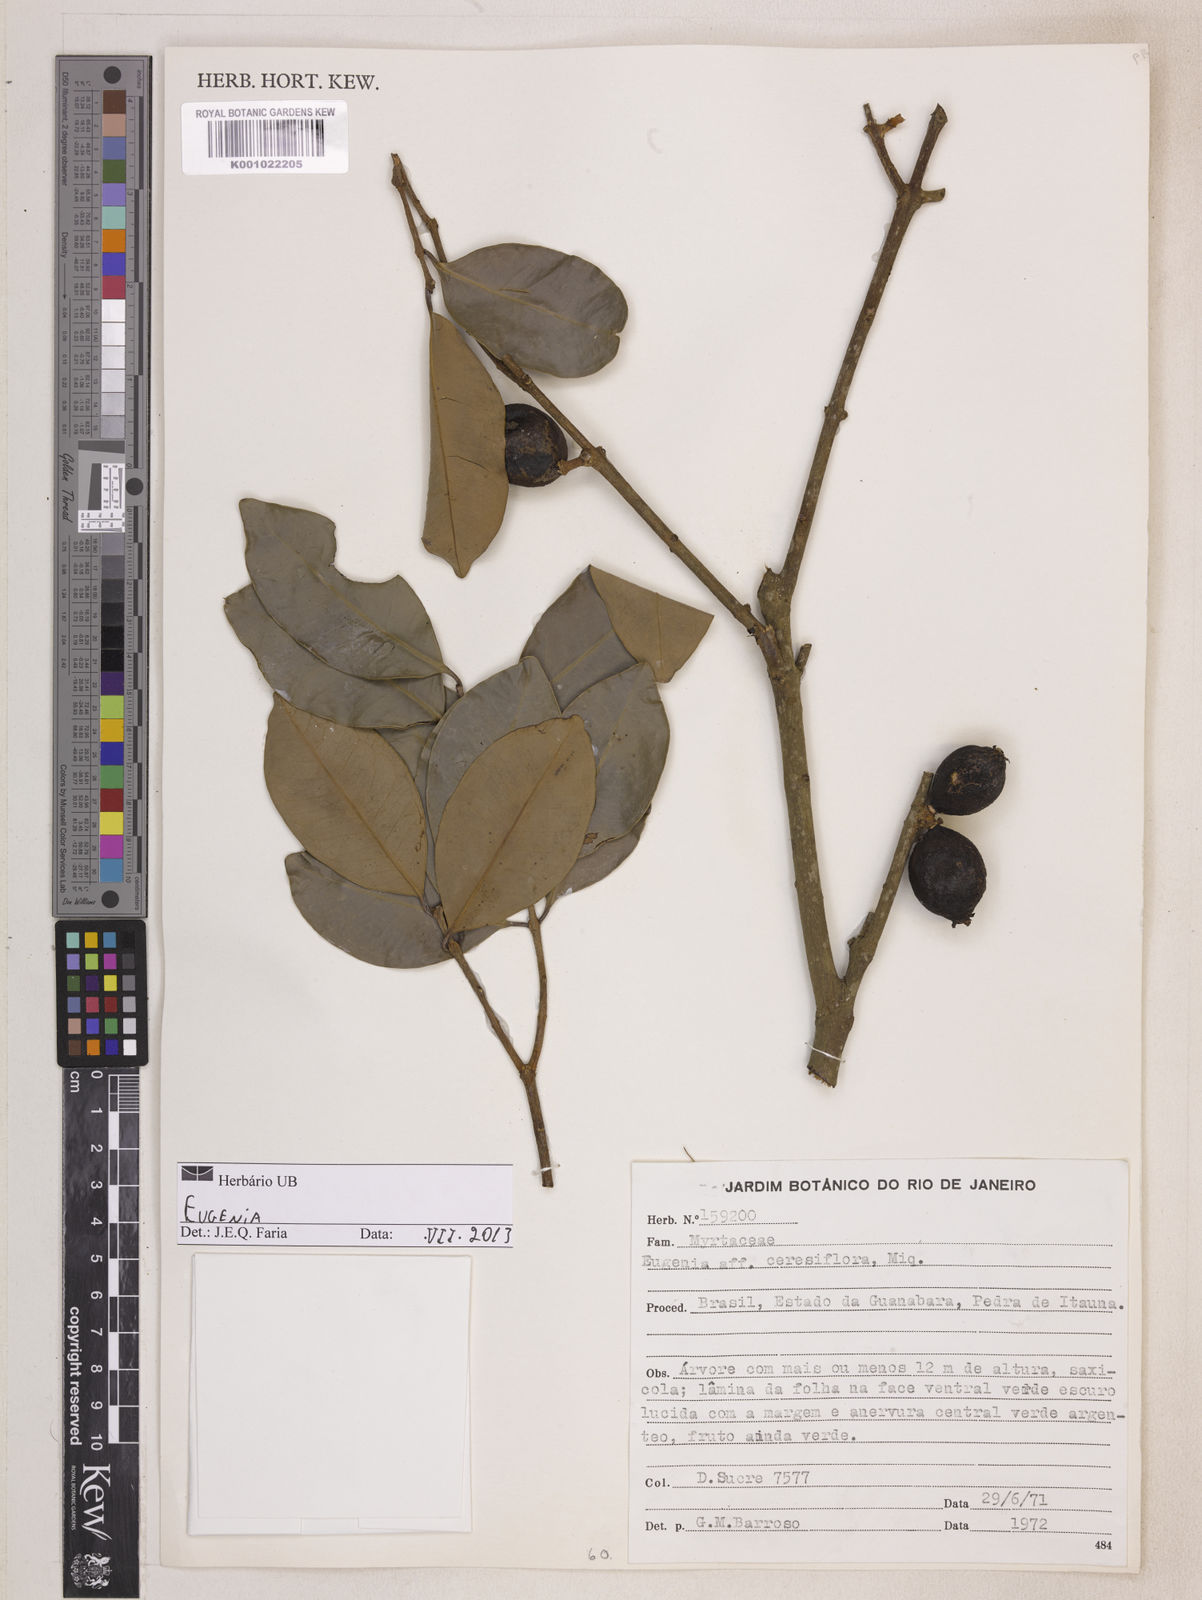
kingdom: Plantae
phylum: Tracheophyta
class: Magnoliopsida
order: Myrtales
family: Myrtaceae
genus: Eugenia
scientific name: Eugenia pruinosa
